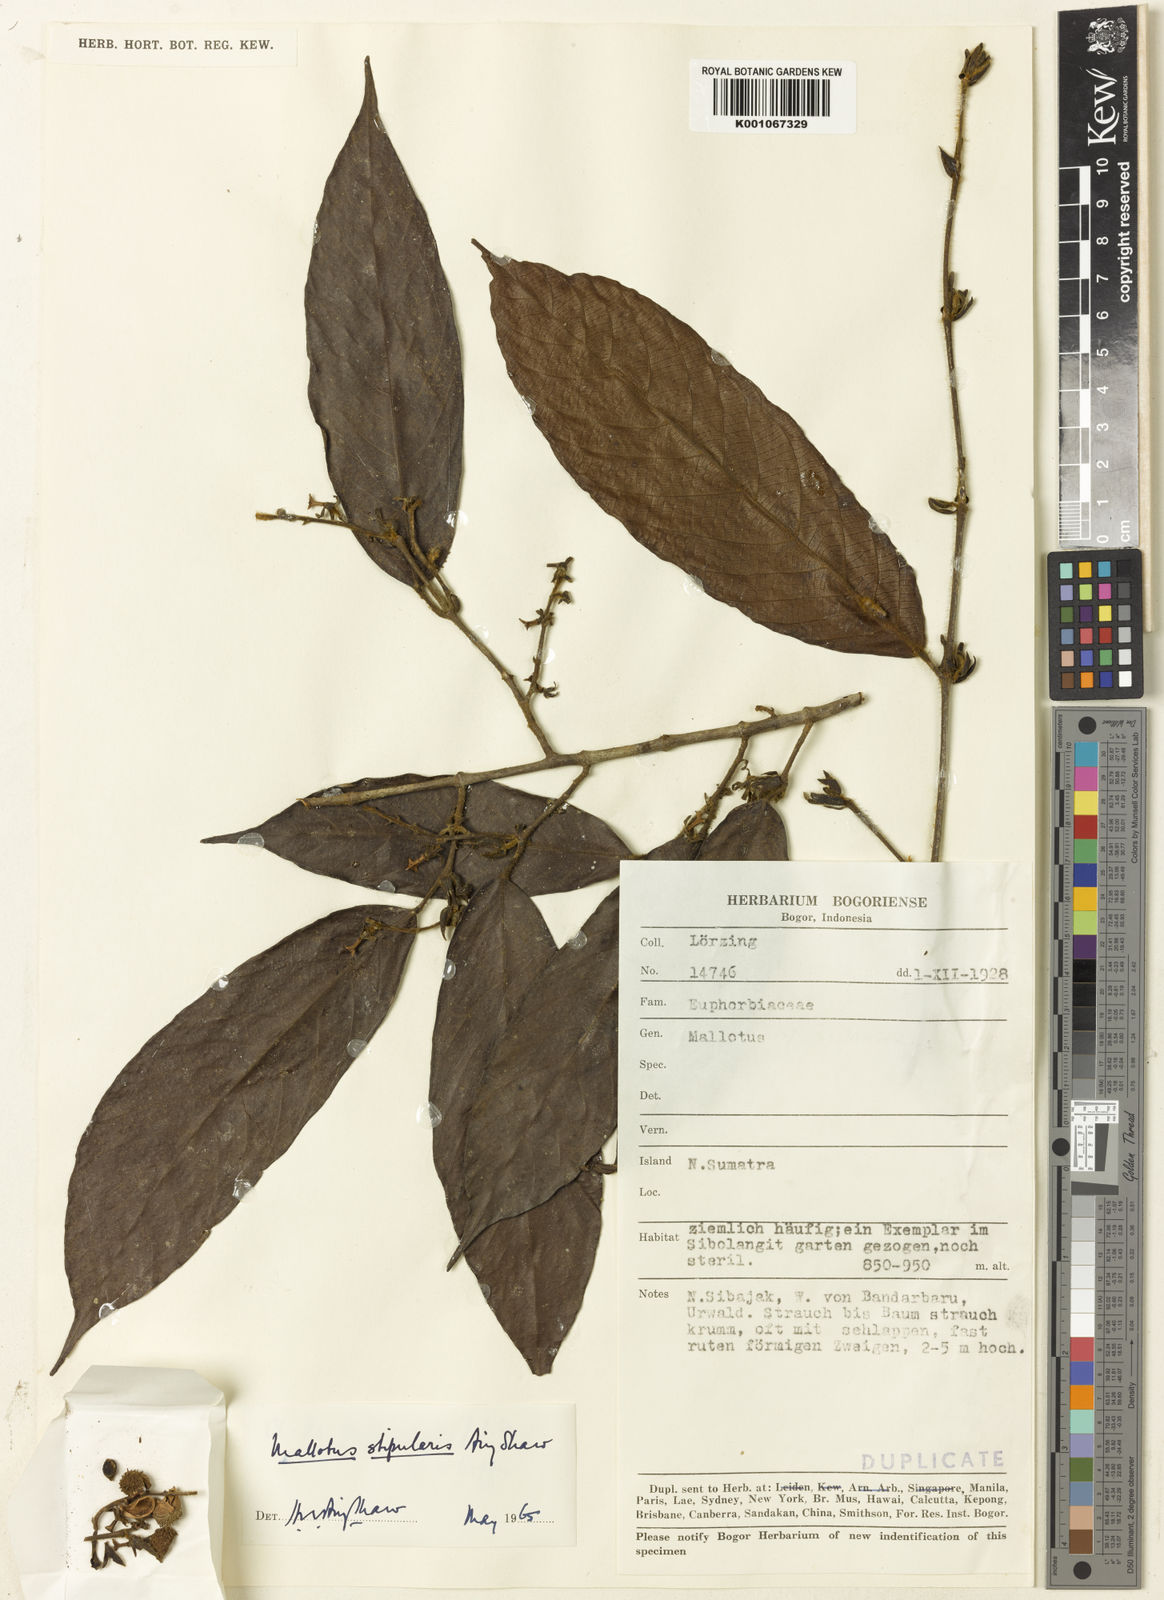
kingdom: Plantae
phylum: Tracheophyta
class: Magnoliopsida
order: Malpighiales
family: Euphorbiaceae
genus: Hancea
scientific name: Hancea stipularis
